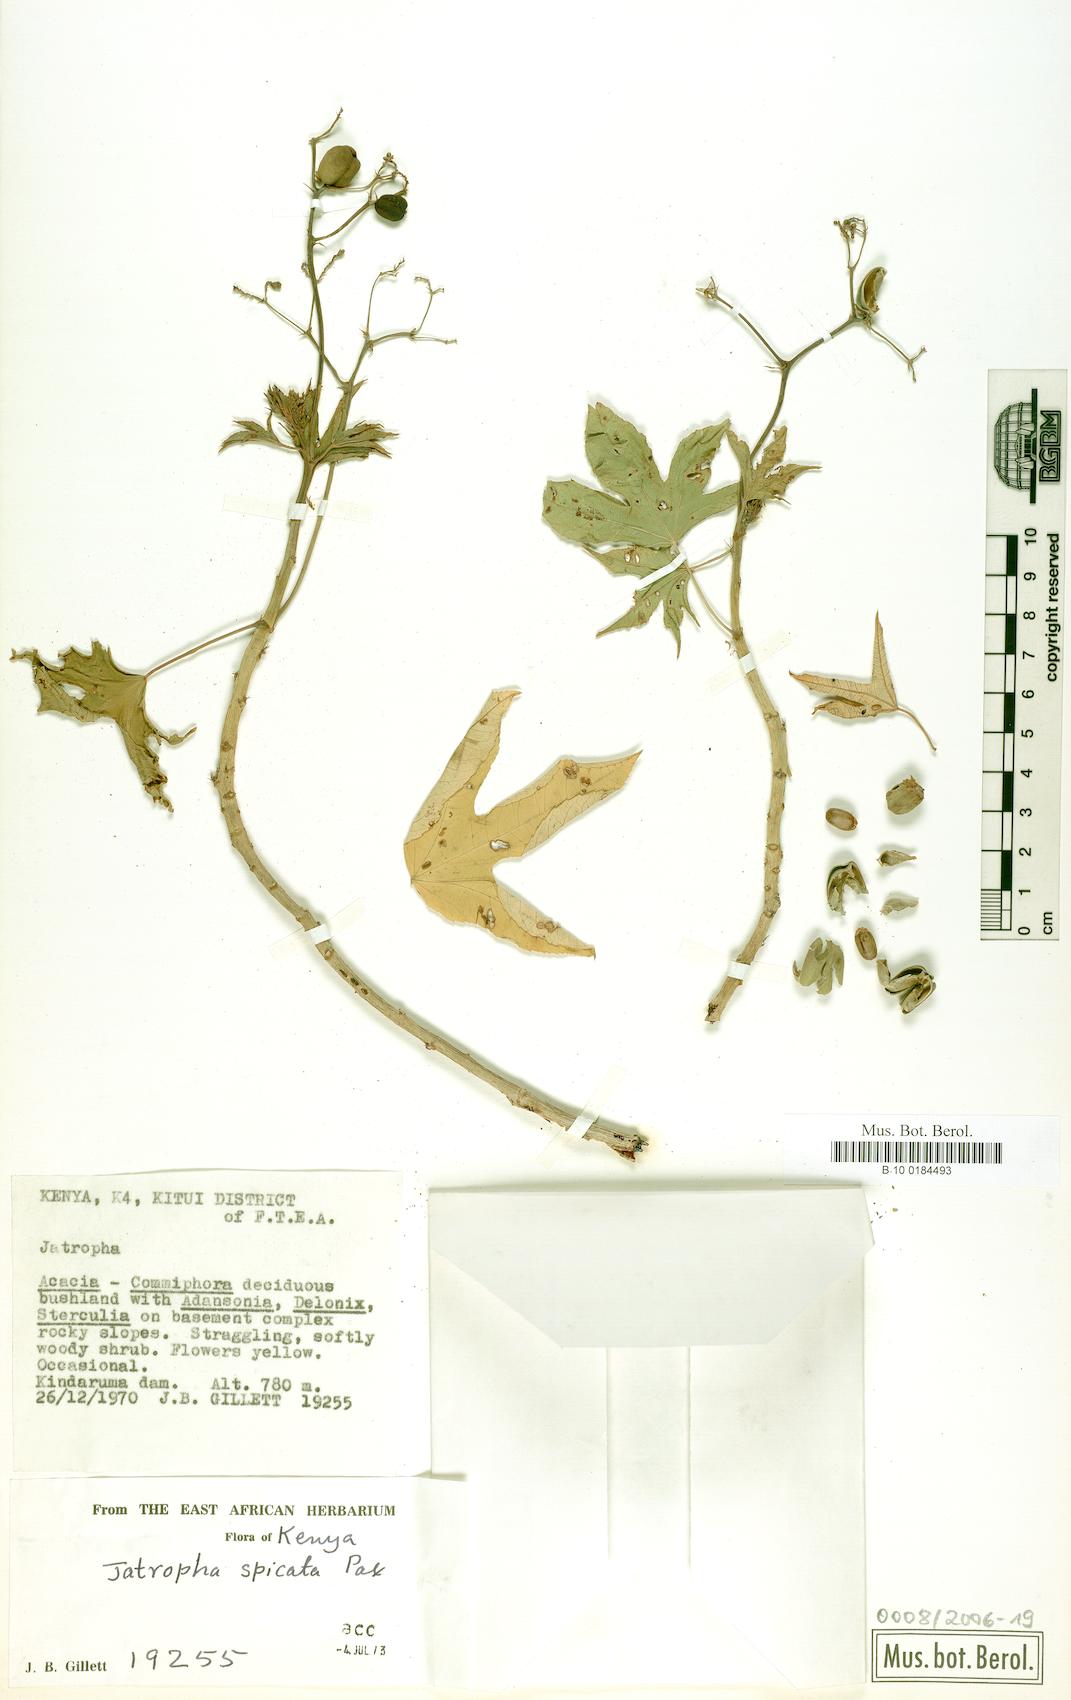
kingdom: Plantae
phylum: Tracheophyta
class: Magnoliopsida
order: Malpighiales
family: Euphorbiaceae
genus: Jatropha
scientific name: Jatropha spicata
